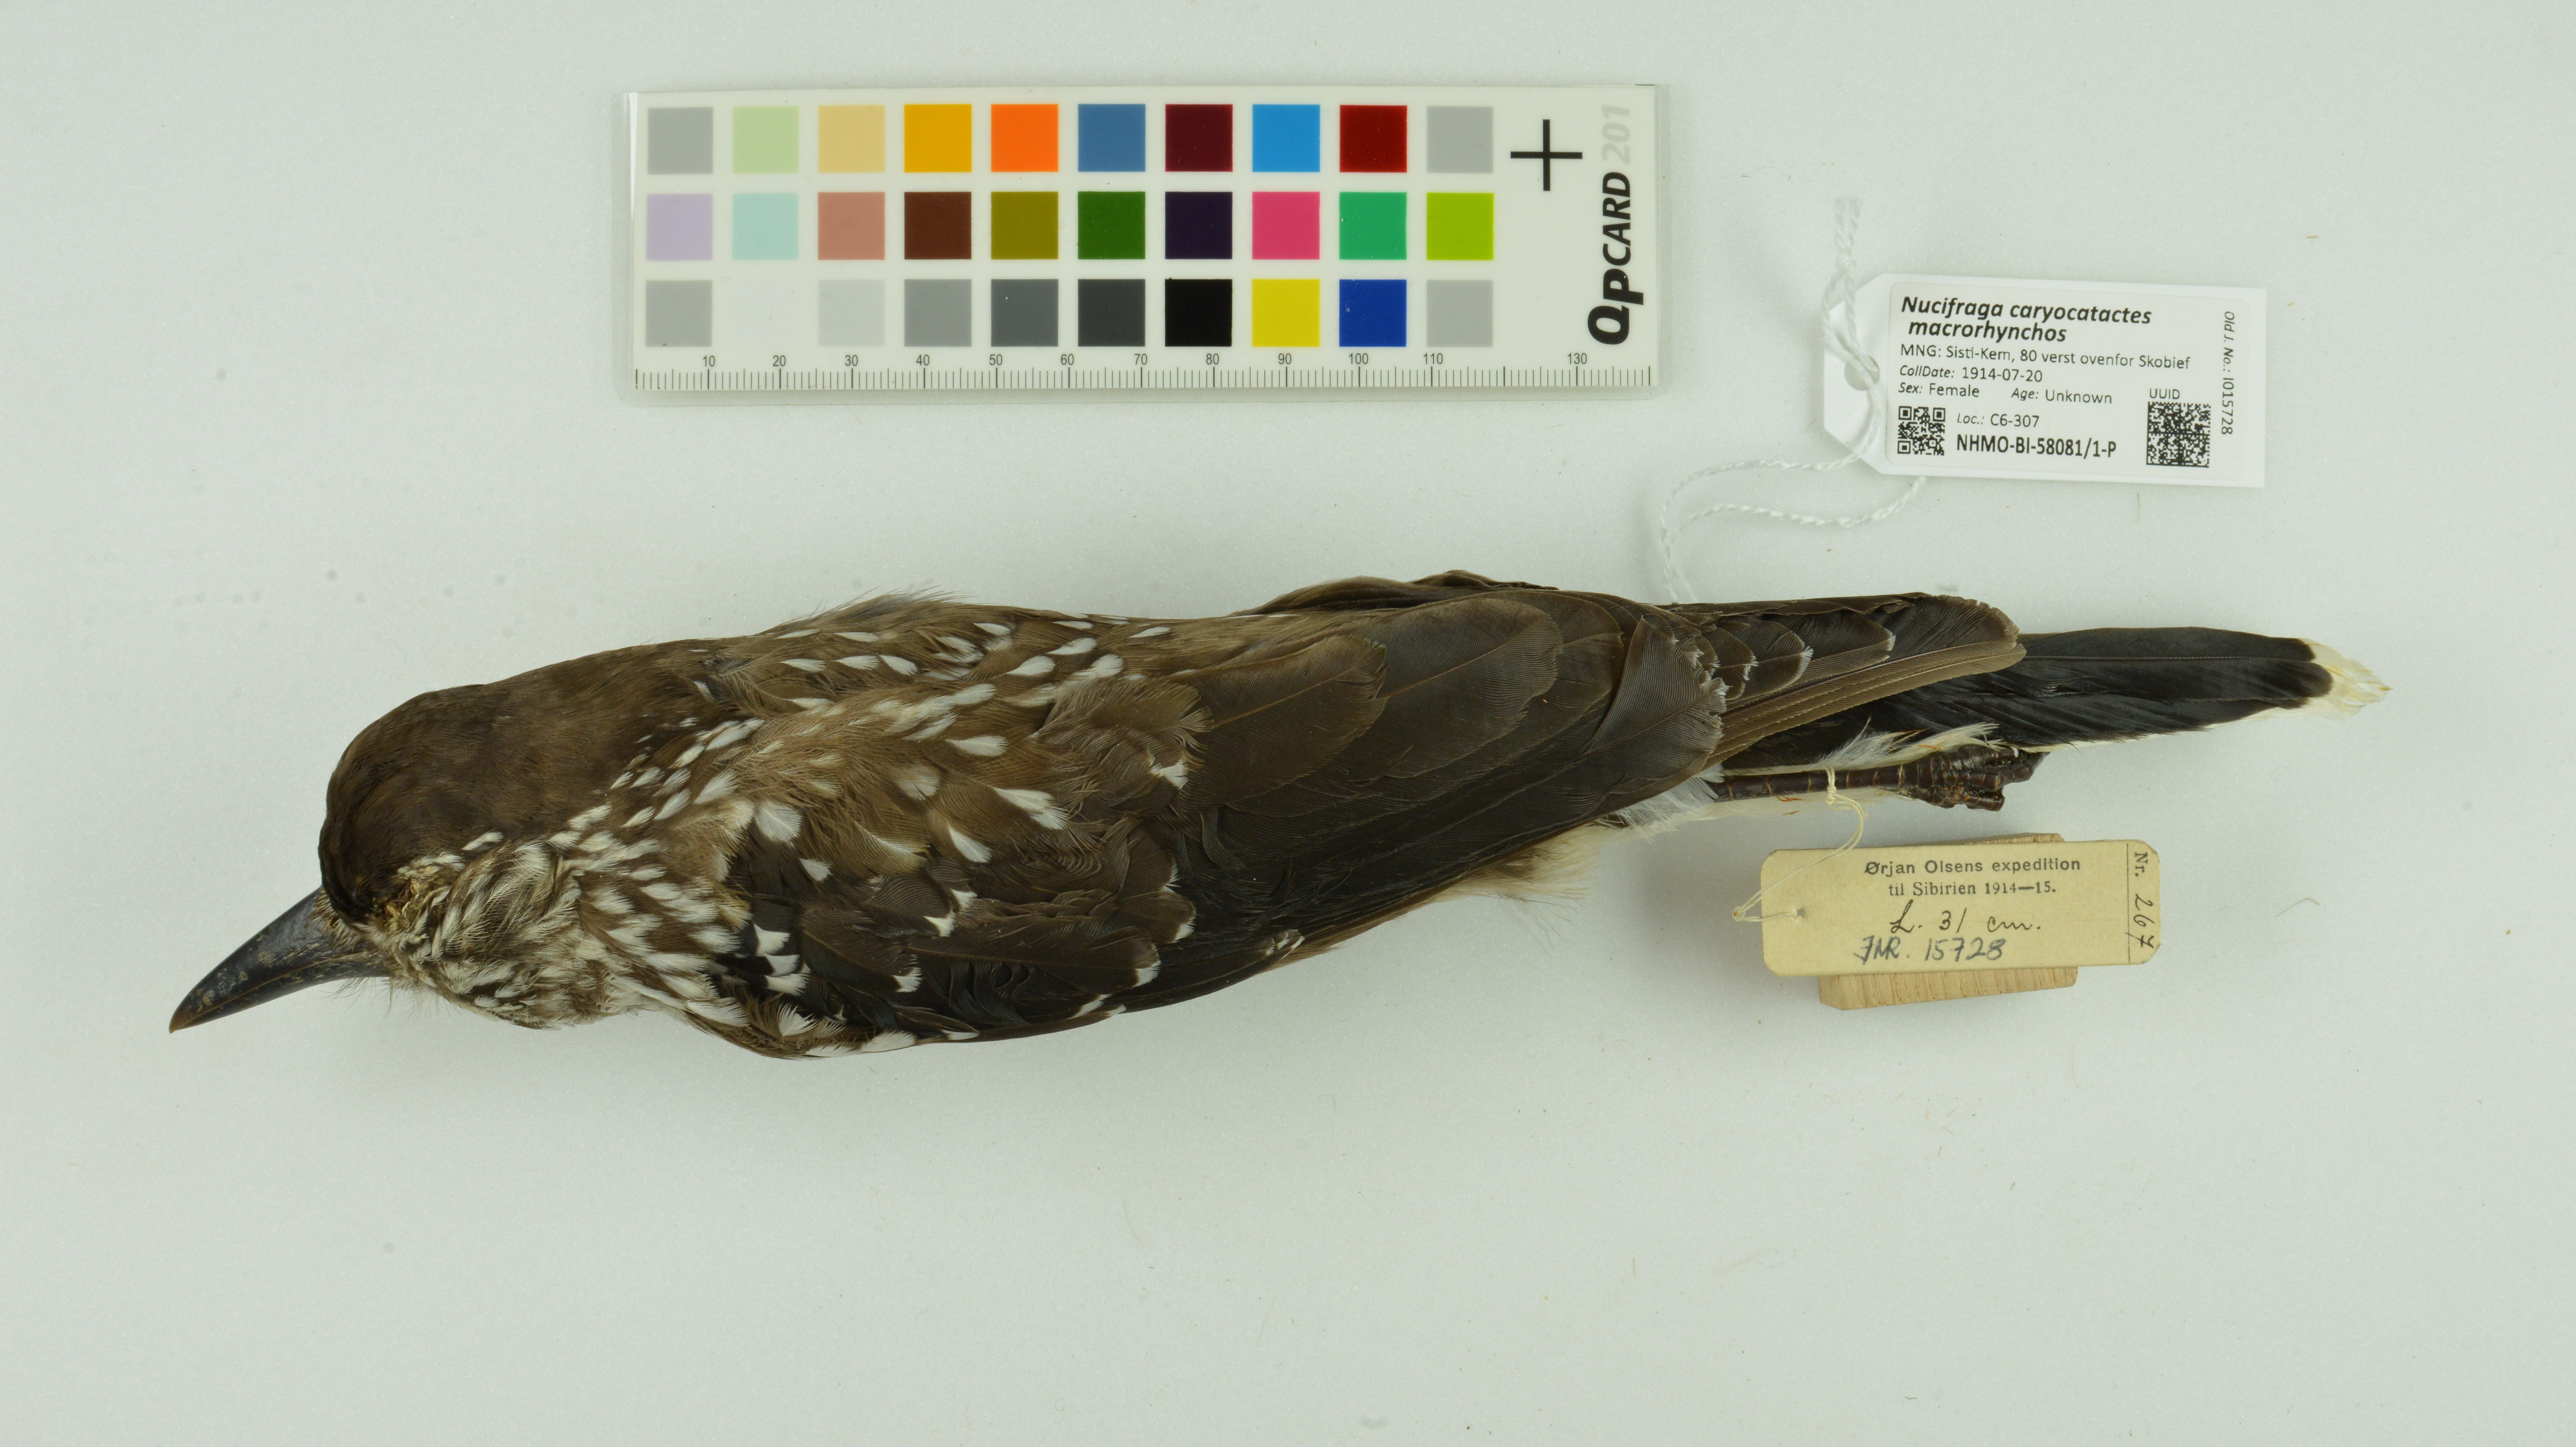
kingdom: Animalia
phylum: Chordata
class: Aves
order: Passeriformes
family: Corvidae
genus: Nucifraga
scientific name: Nucifraga caryocatactes
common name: Spotted nutcracker
